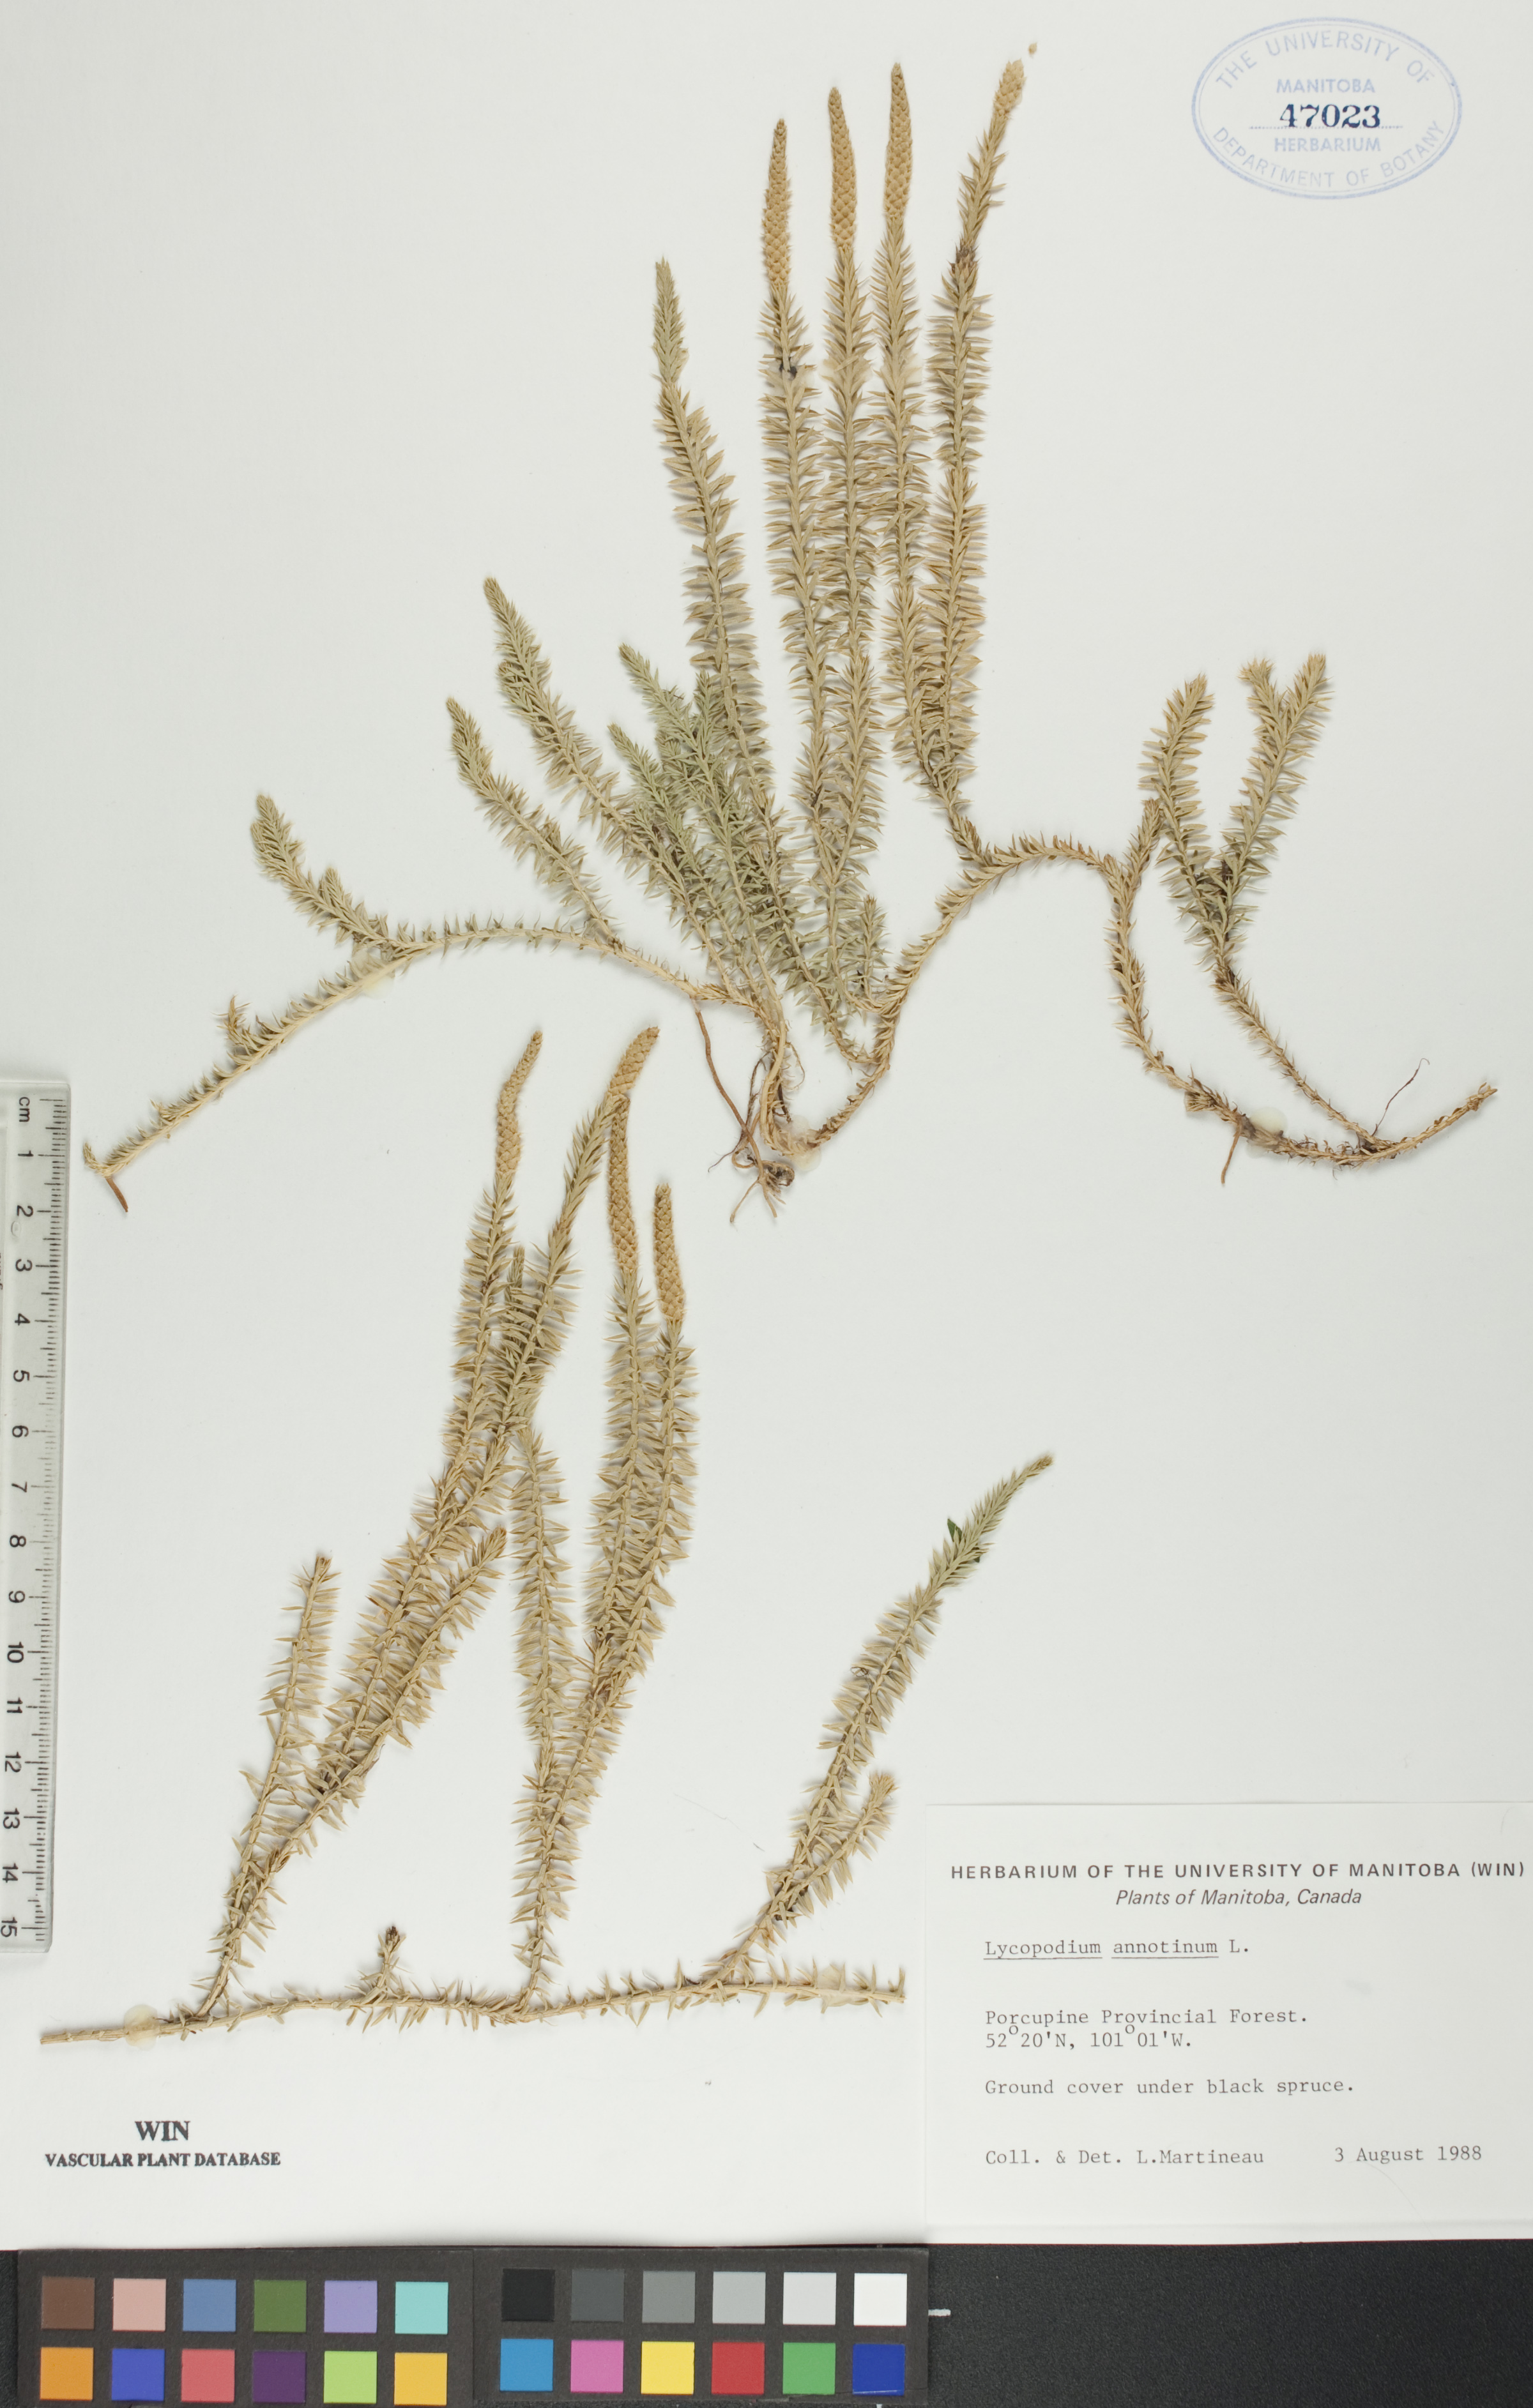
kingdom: Plantae
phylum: Tracheophyta
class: Lycopodiopsida
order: Lycopodiales
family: Lycopodiaceae
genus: Spinulum
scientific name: Spinulum annotinum
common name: Interrupted club-moss
